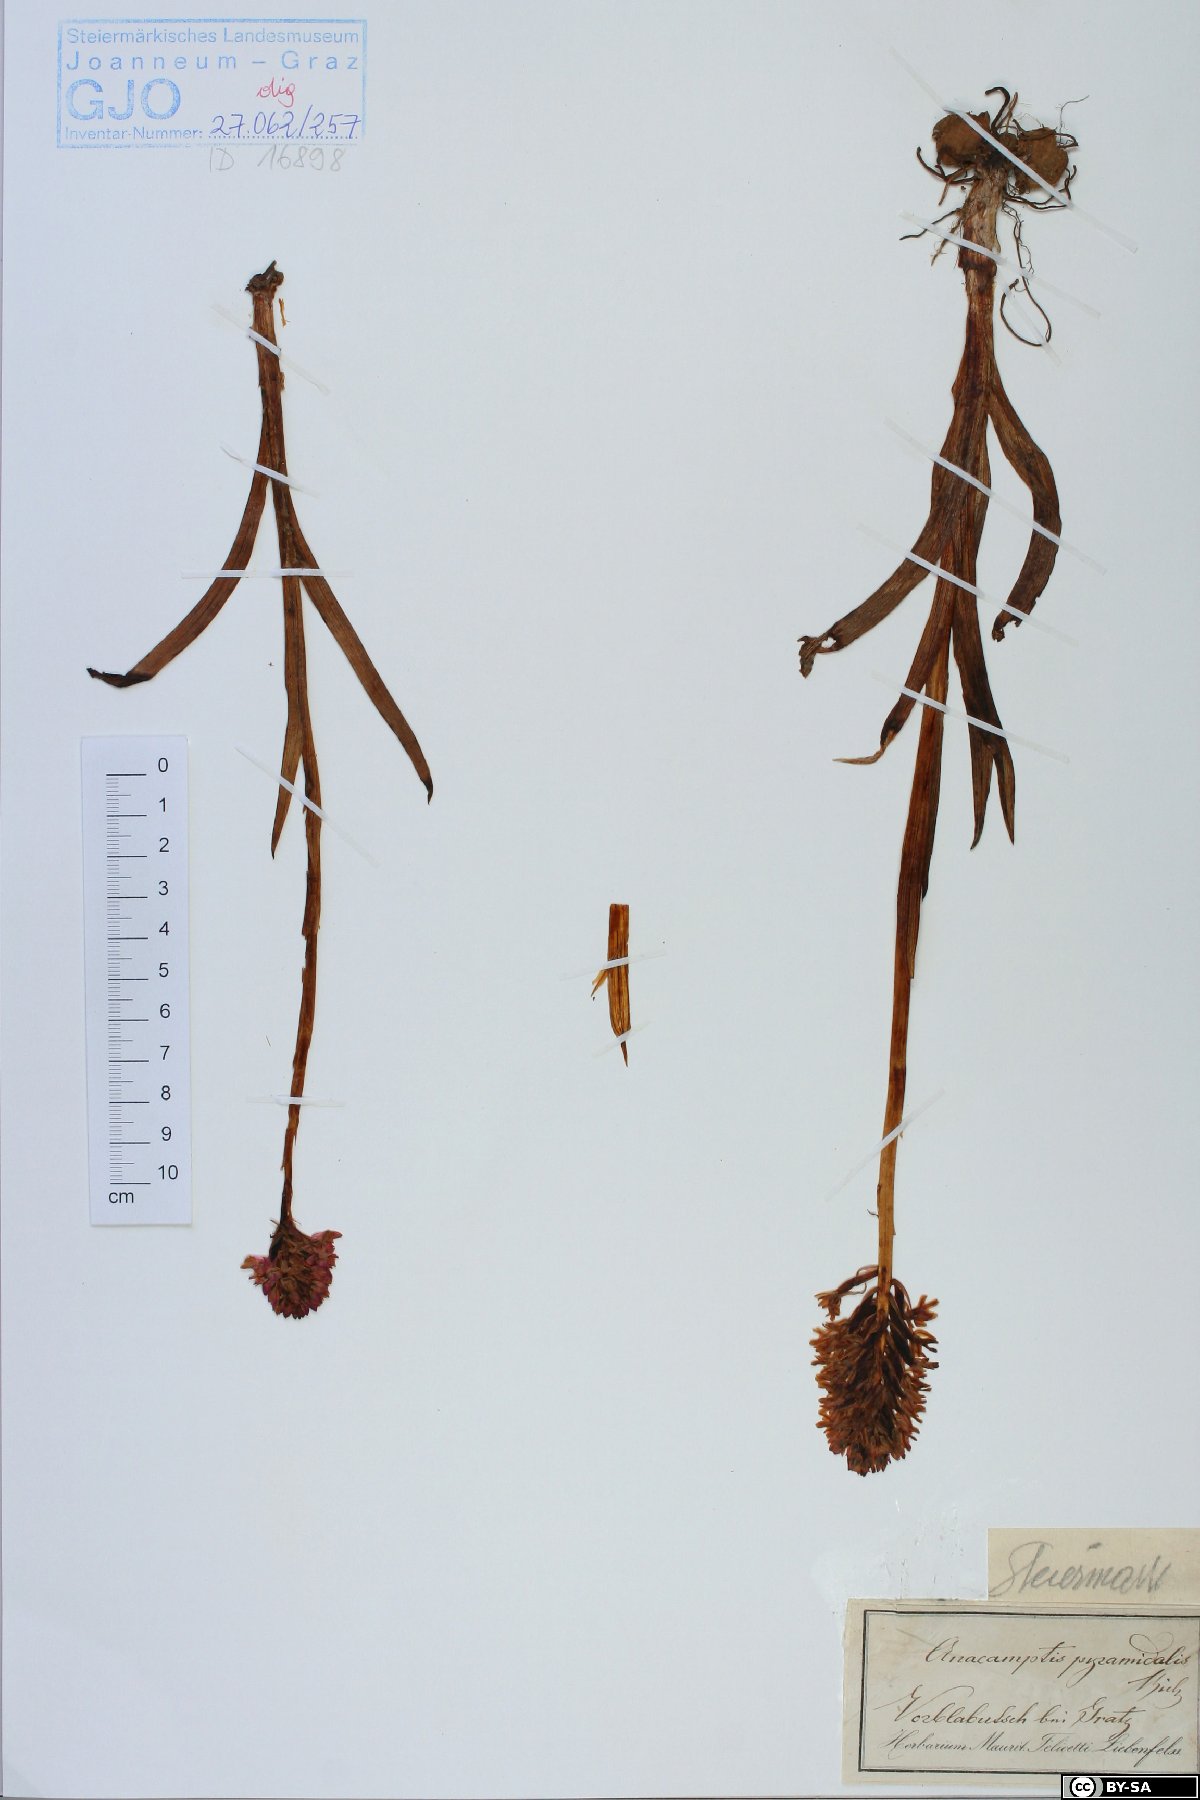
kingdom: Plantae
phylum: Tracheophyta
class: Liliopsida
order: Asparagales
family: Orchidaceae
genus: Anacamptis
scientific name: Anacamptis pyramidalis
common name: Pyramidal orchid
